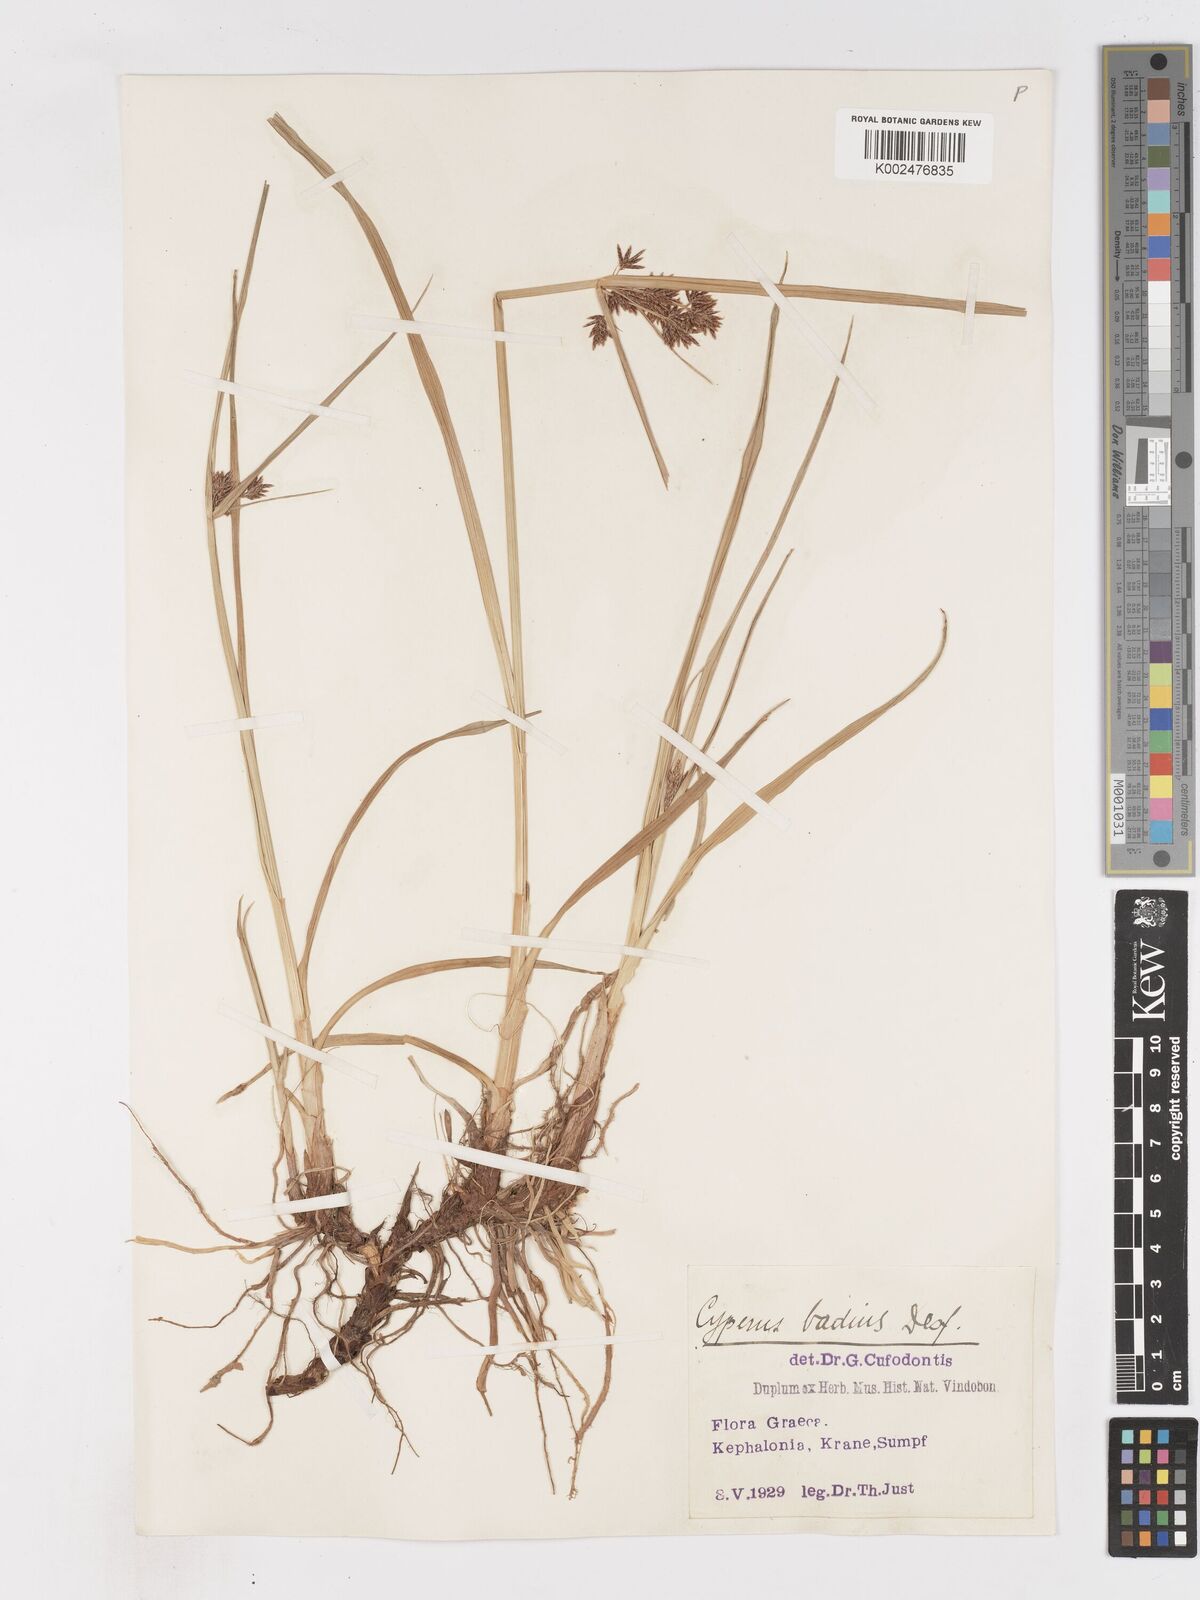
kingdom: Plantae
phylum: Tracheophyta
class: Liliopsida
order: Poales
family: Cyperaceae
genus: Cyperus
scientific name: Cyperus longus
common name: Galingale
